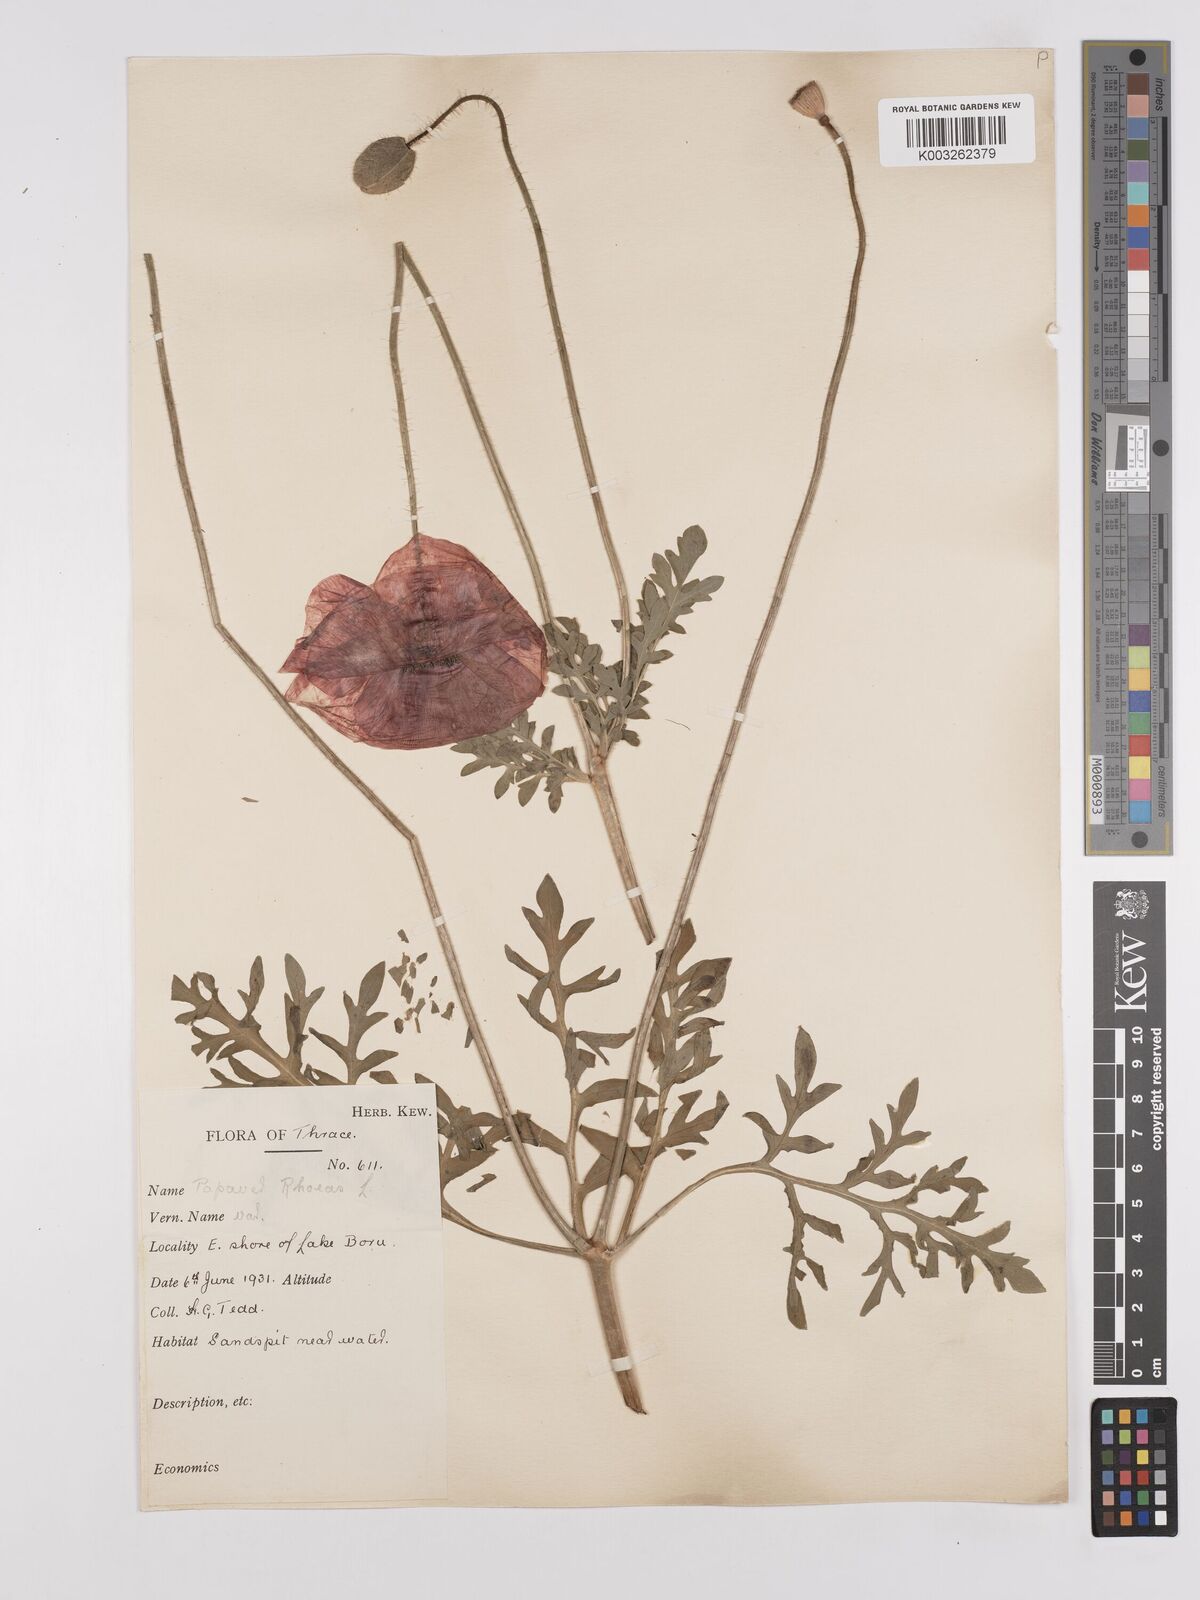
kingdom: Plantae
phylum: Tracheophyta
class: Magnoliopsida
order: Ranunculales
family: Papaveraceae
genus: Papaver
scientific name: Papaver rhoeas
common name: Corn poppy
